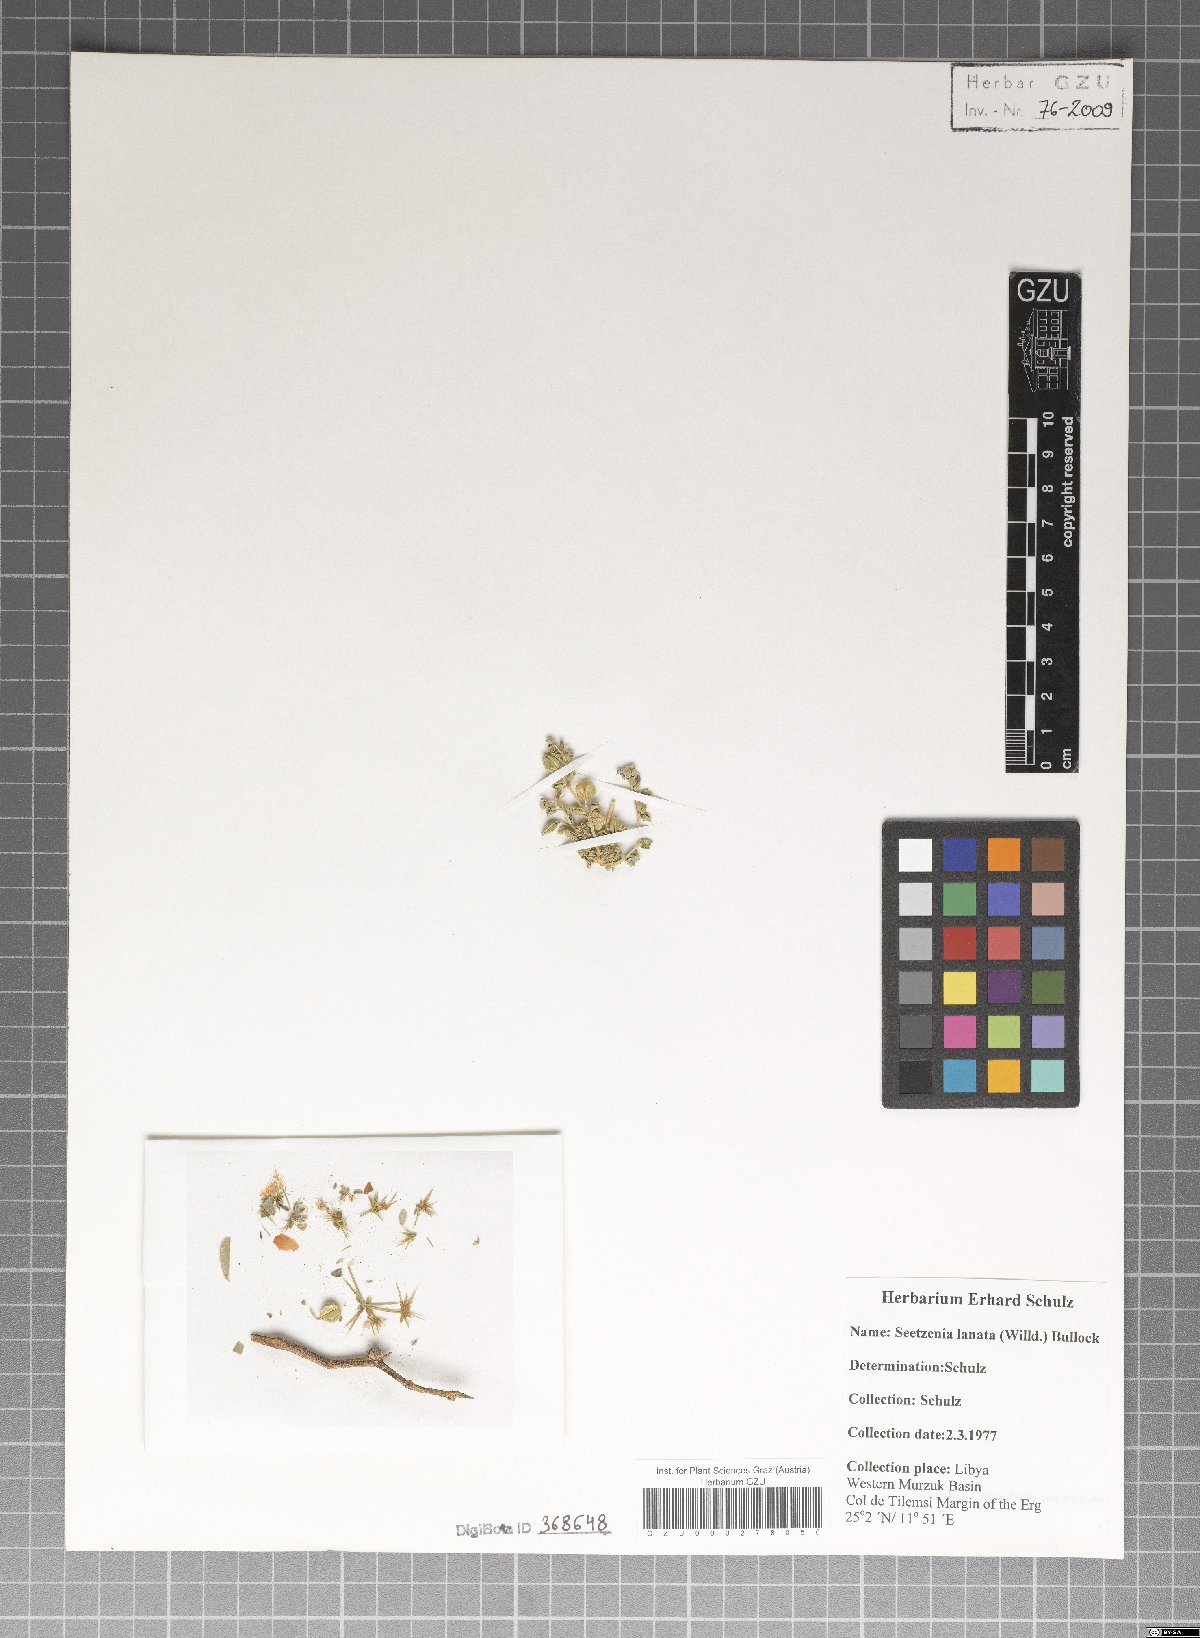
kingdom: Plantae
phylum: Tracheophyta
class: Magnoliopsida
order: Zygophyllales
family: Zygophyllaceae
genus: Seetzenia
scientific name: Seetzenia lanata
